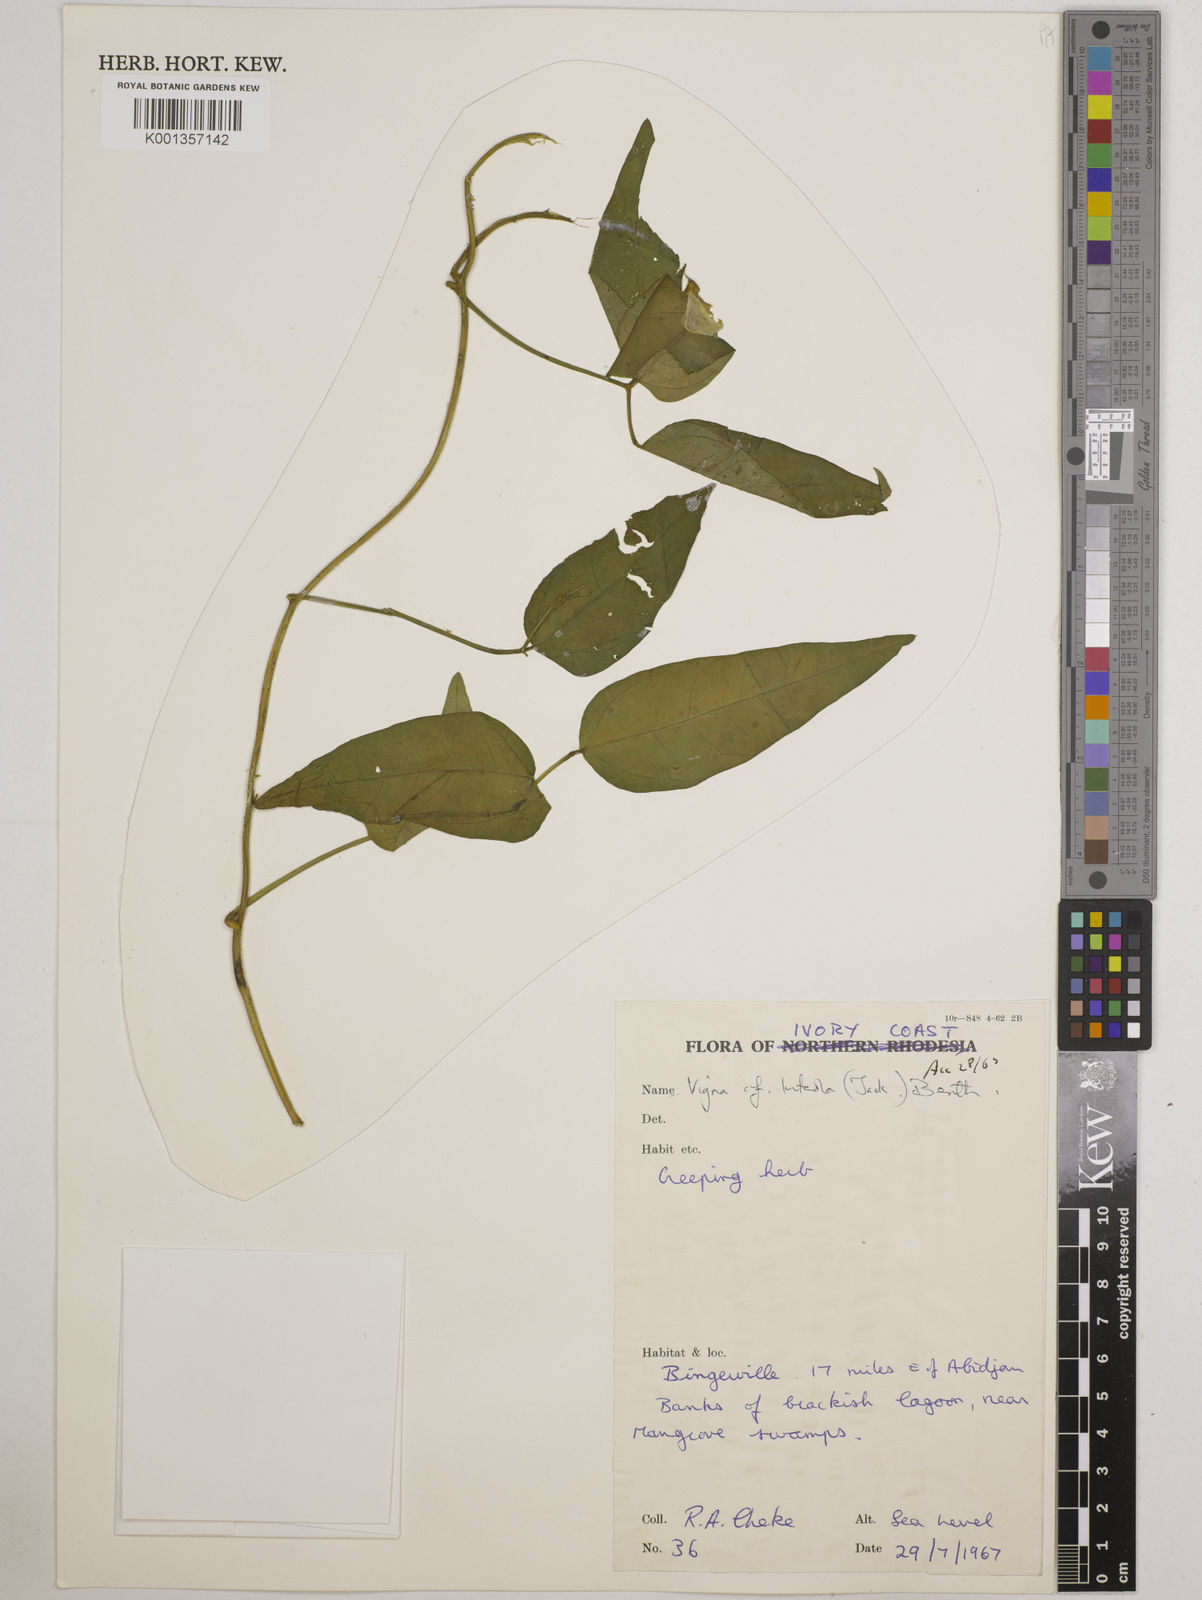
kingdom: Plantae
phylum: Tracheophyta
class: Magnoliopsida
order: Fabales
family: Fabaceae
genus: Vigna
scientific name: Vigna luteola
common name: Hairypod cowpea
